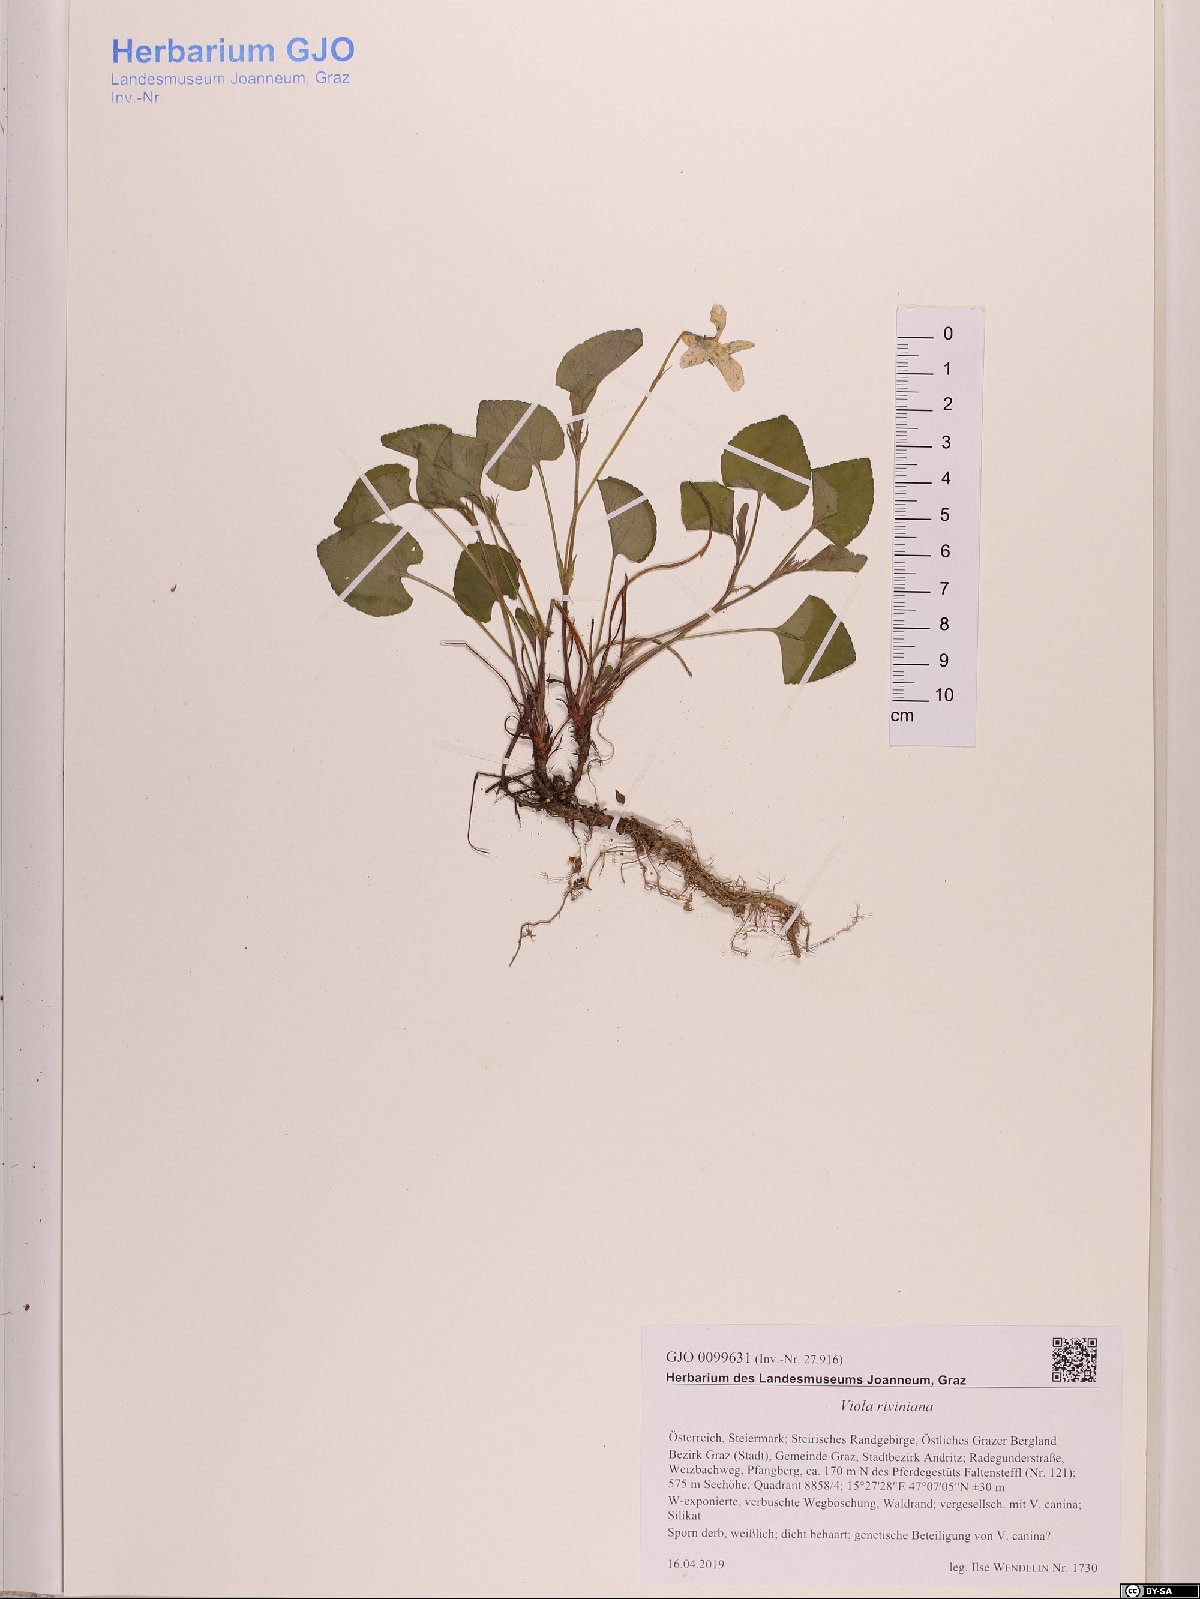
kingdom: Plantae
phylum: Tracheophyta
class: Magnoliopsida
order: Malpighiales
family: Violaceae
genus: Viola
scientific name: Viola riviniana
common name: Common dog-violet
